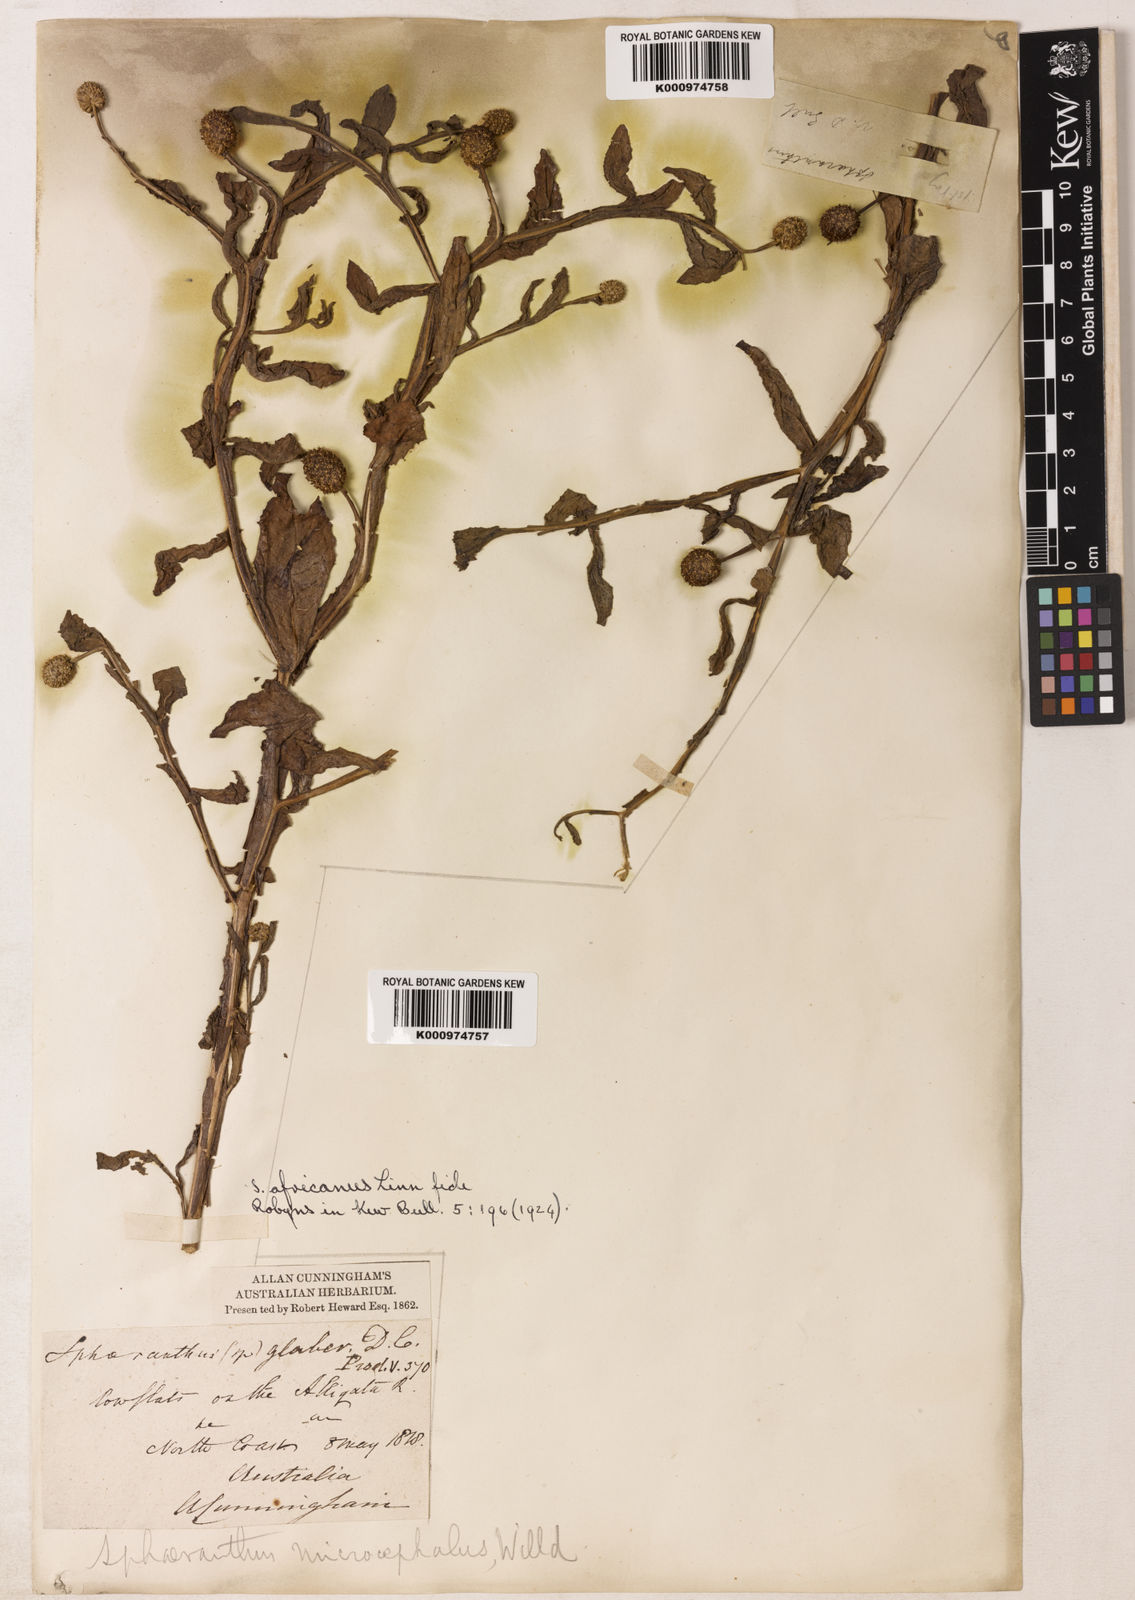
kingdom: Plantae
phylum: Tracheophyta
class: Magnoliopsida
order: Asterales
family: Asteraceae
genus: Sphaeranthus
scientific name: Sphaeranthus africanus
